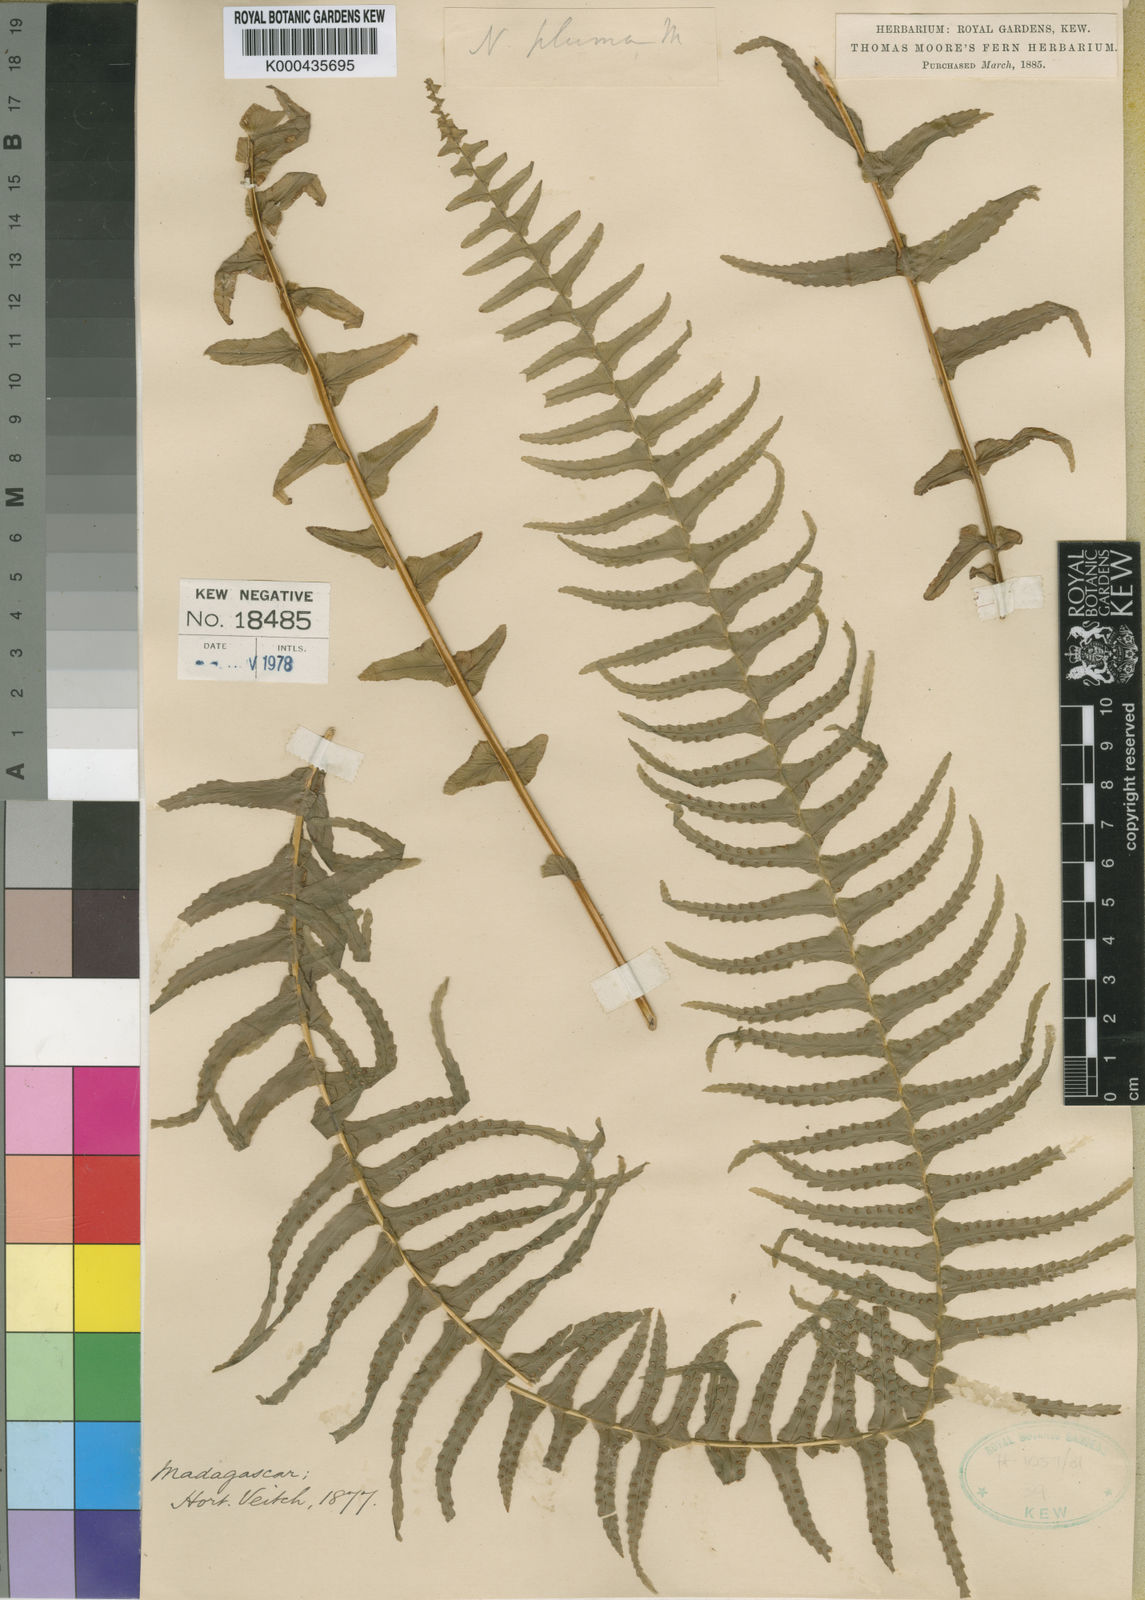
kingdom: Plantae
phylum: Tracheophyta
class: Polypodiopsida
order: Polypodiales
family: Nephrolepidaceae
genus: Nephrolepis
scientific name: Nephrolepis undulata
